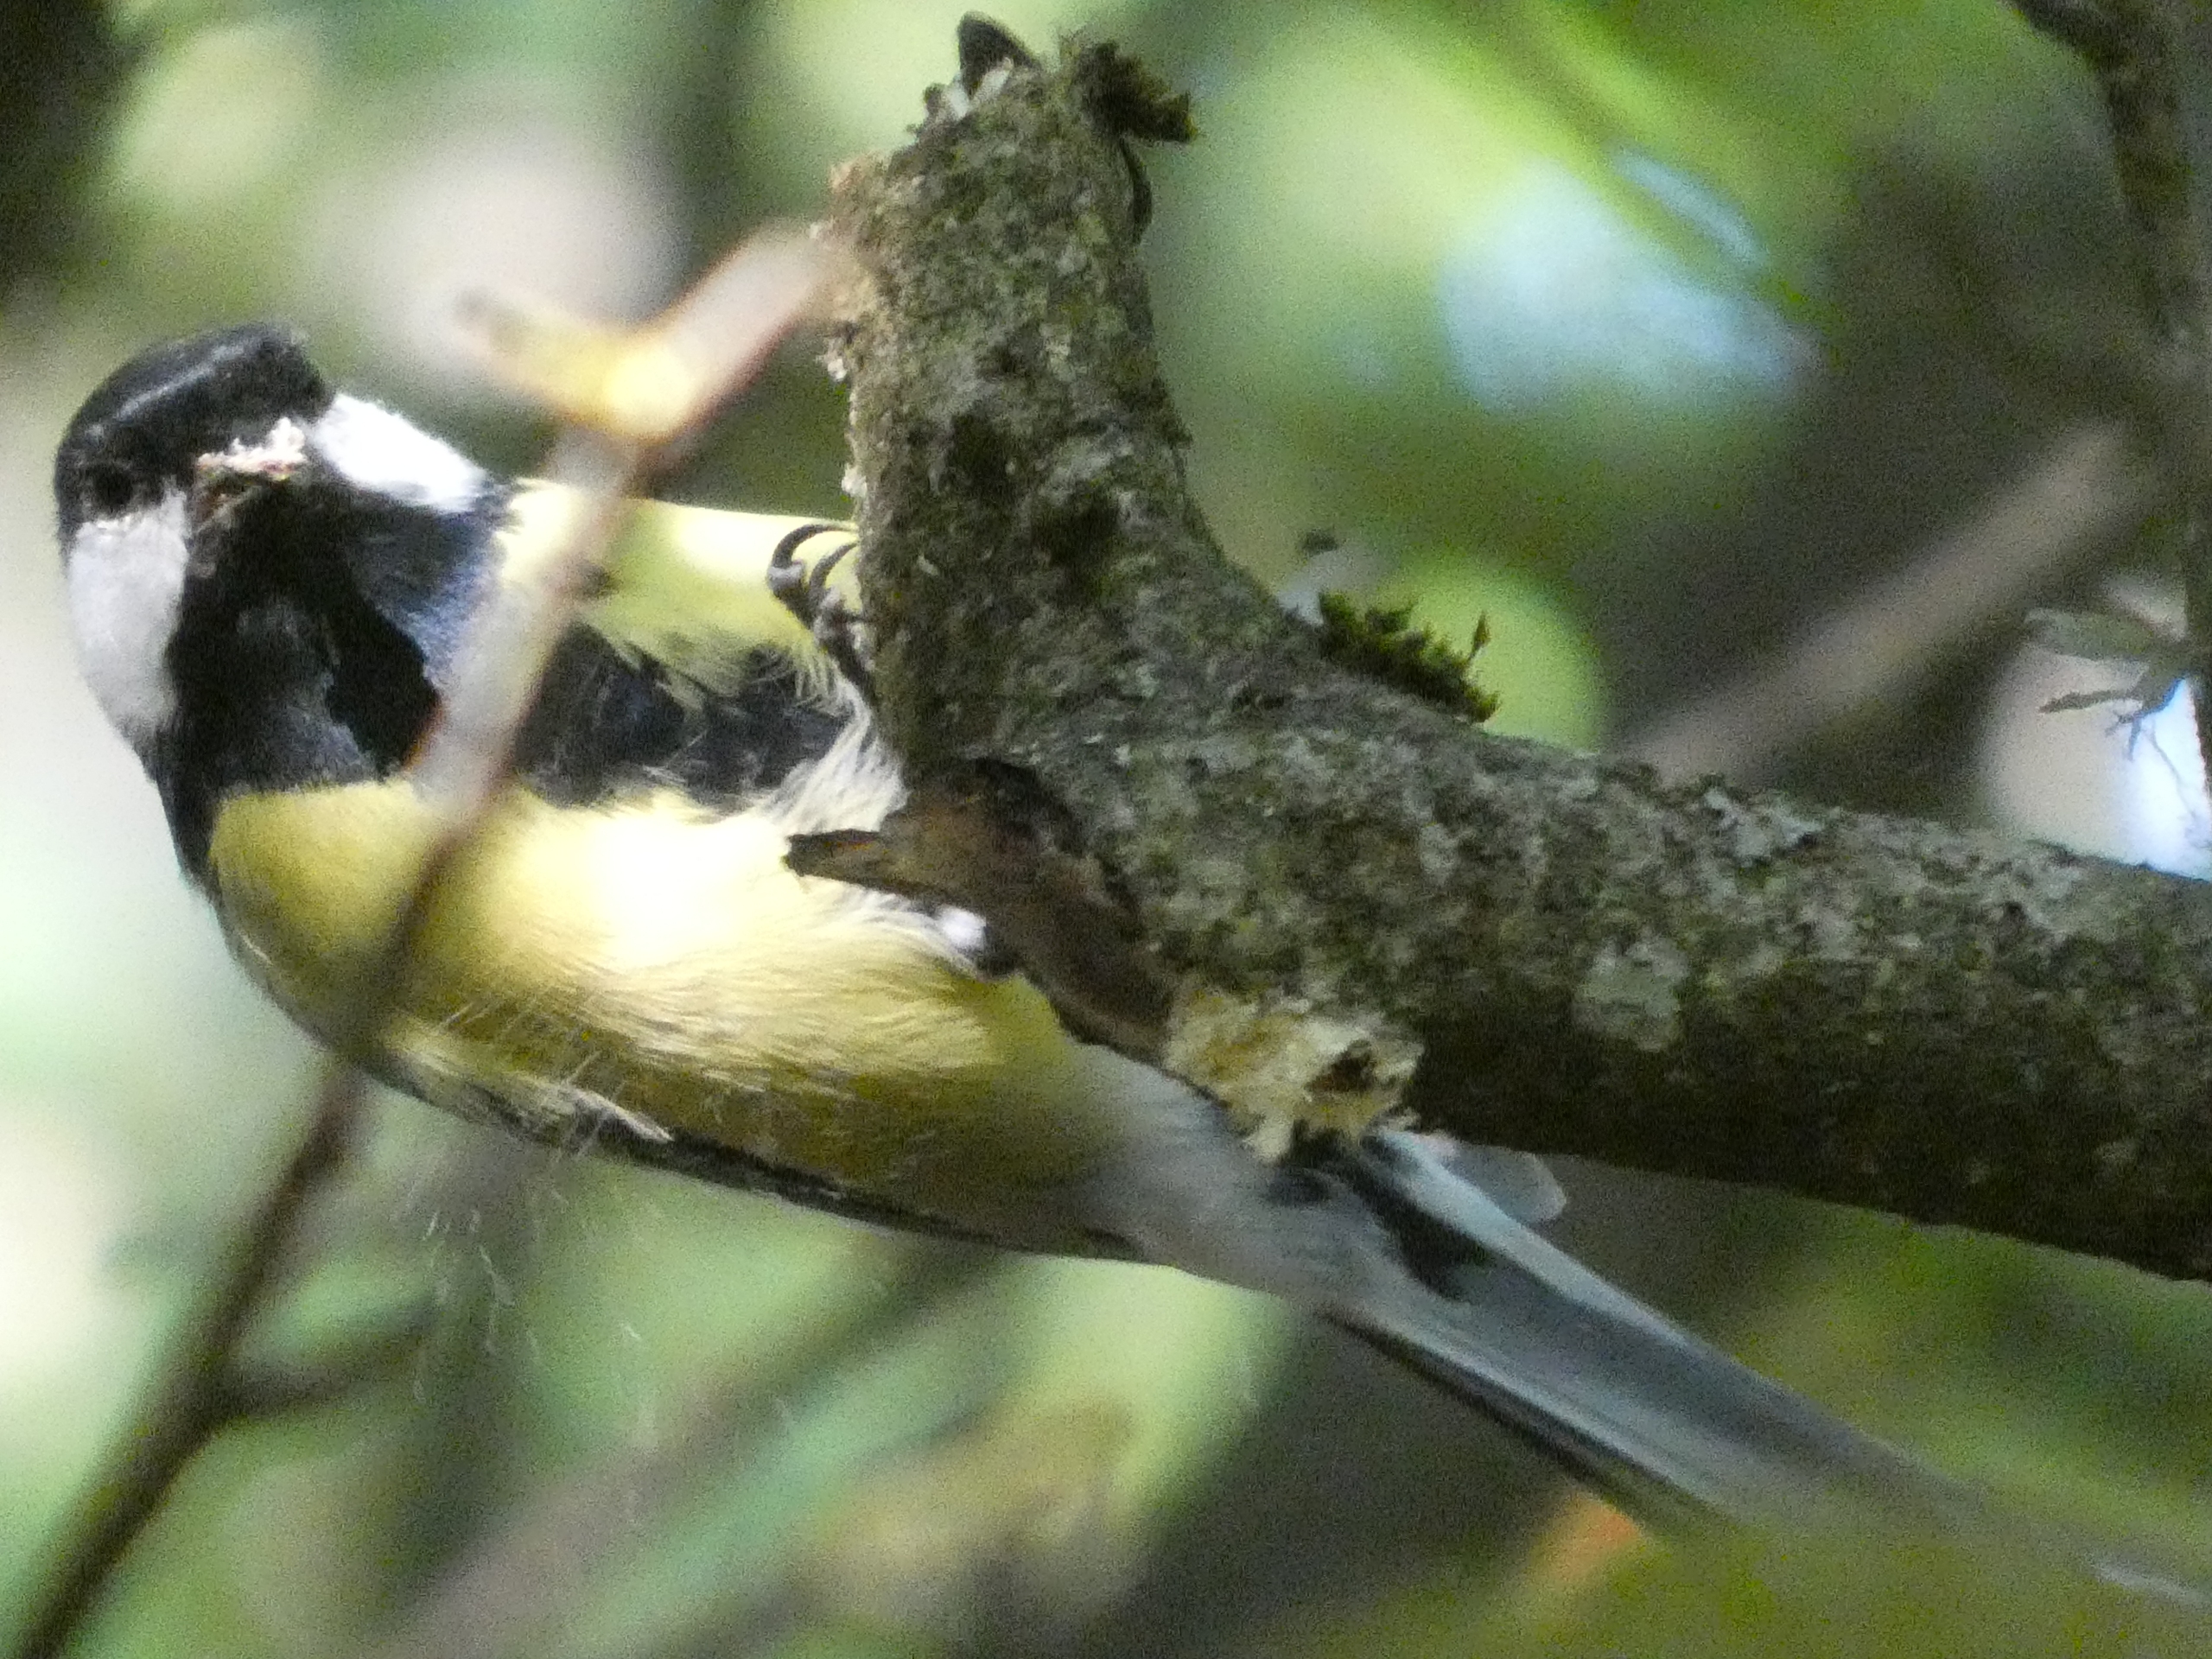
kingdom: Animalia
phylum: Chordata
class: Aves
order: Passeriformes
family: Paridae
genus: Parus
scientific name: Parus major
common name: Musvit
